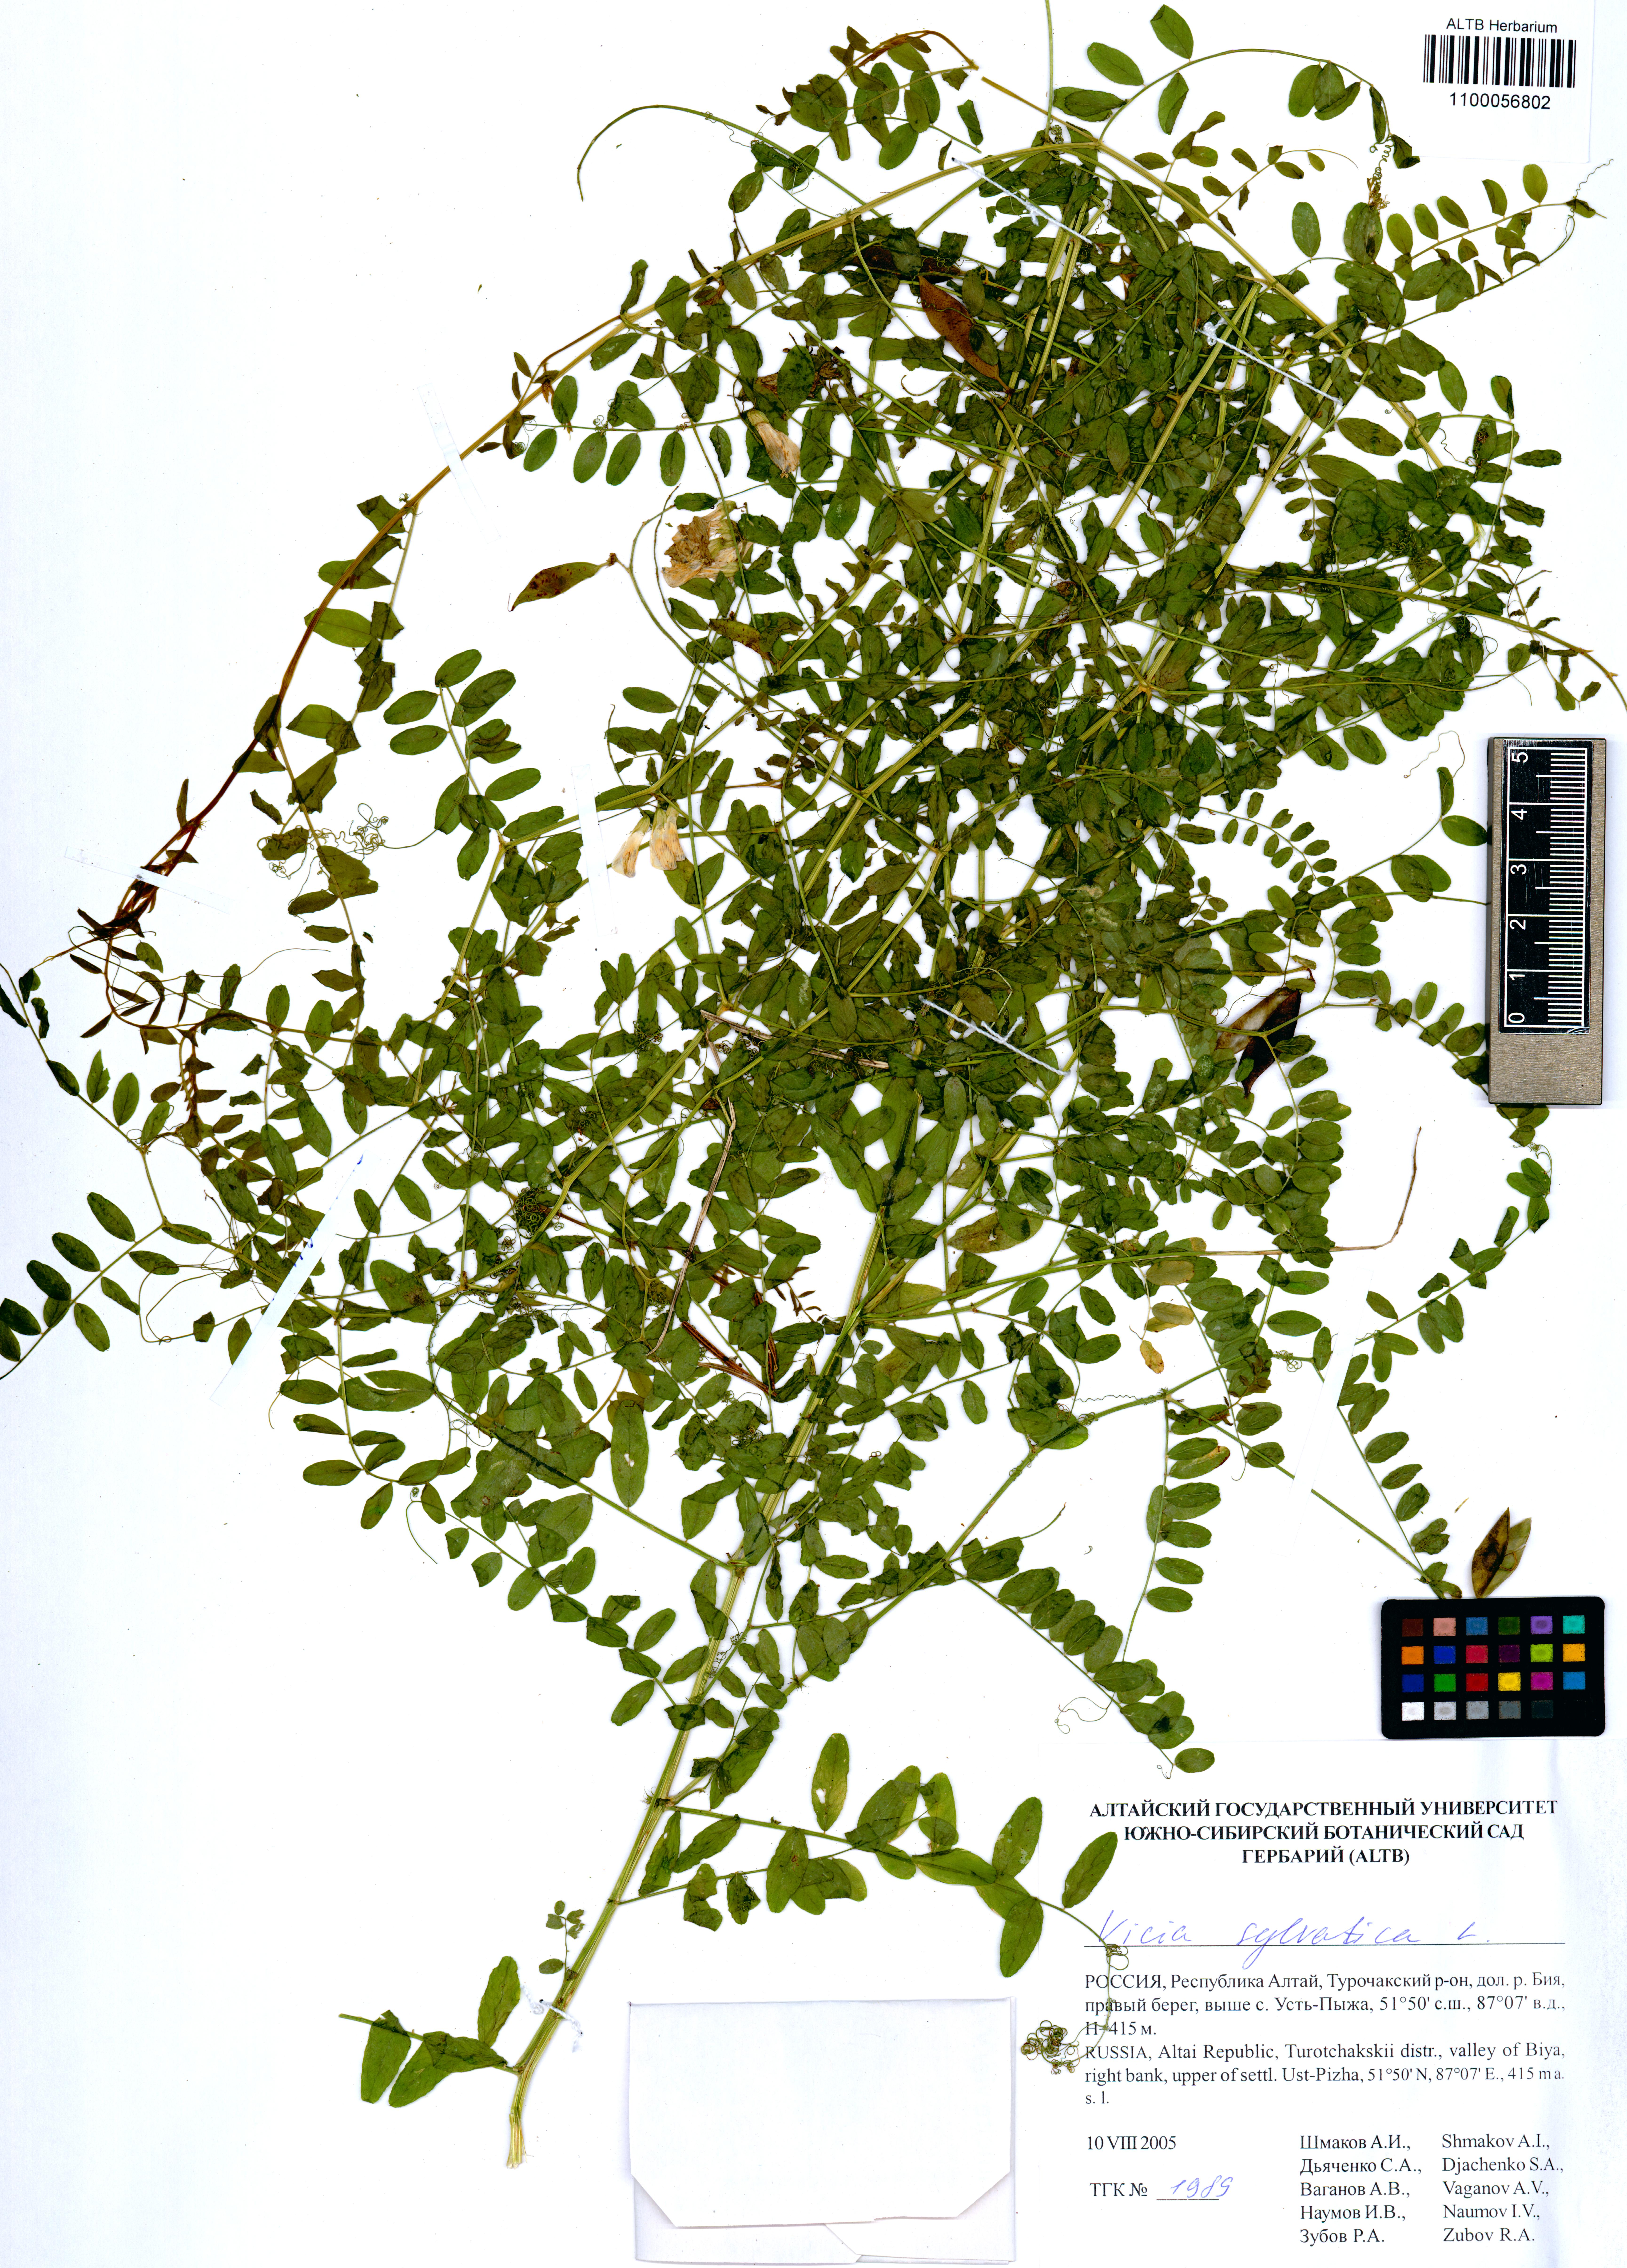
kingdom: Plantae
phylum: Tracheophyta
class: Magnoliopsida
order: Fabales
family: Fabaceae
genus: Vicia
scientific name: Vicia sylvatica
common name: Wood vetch
